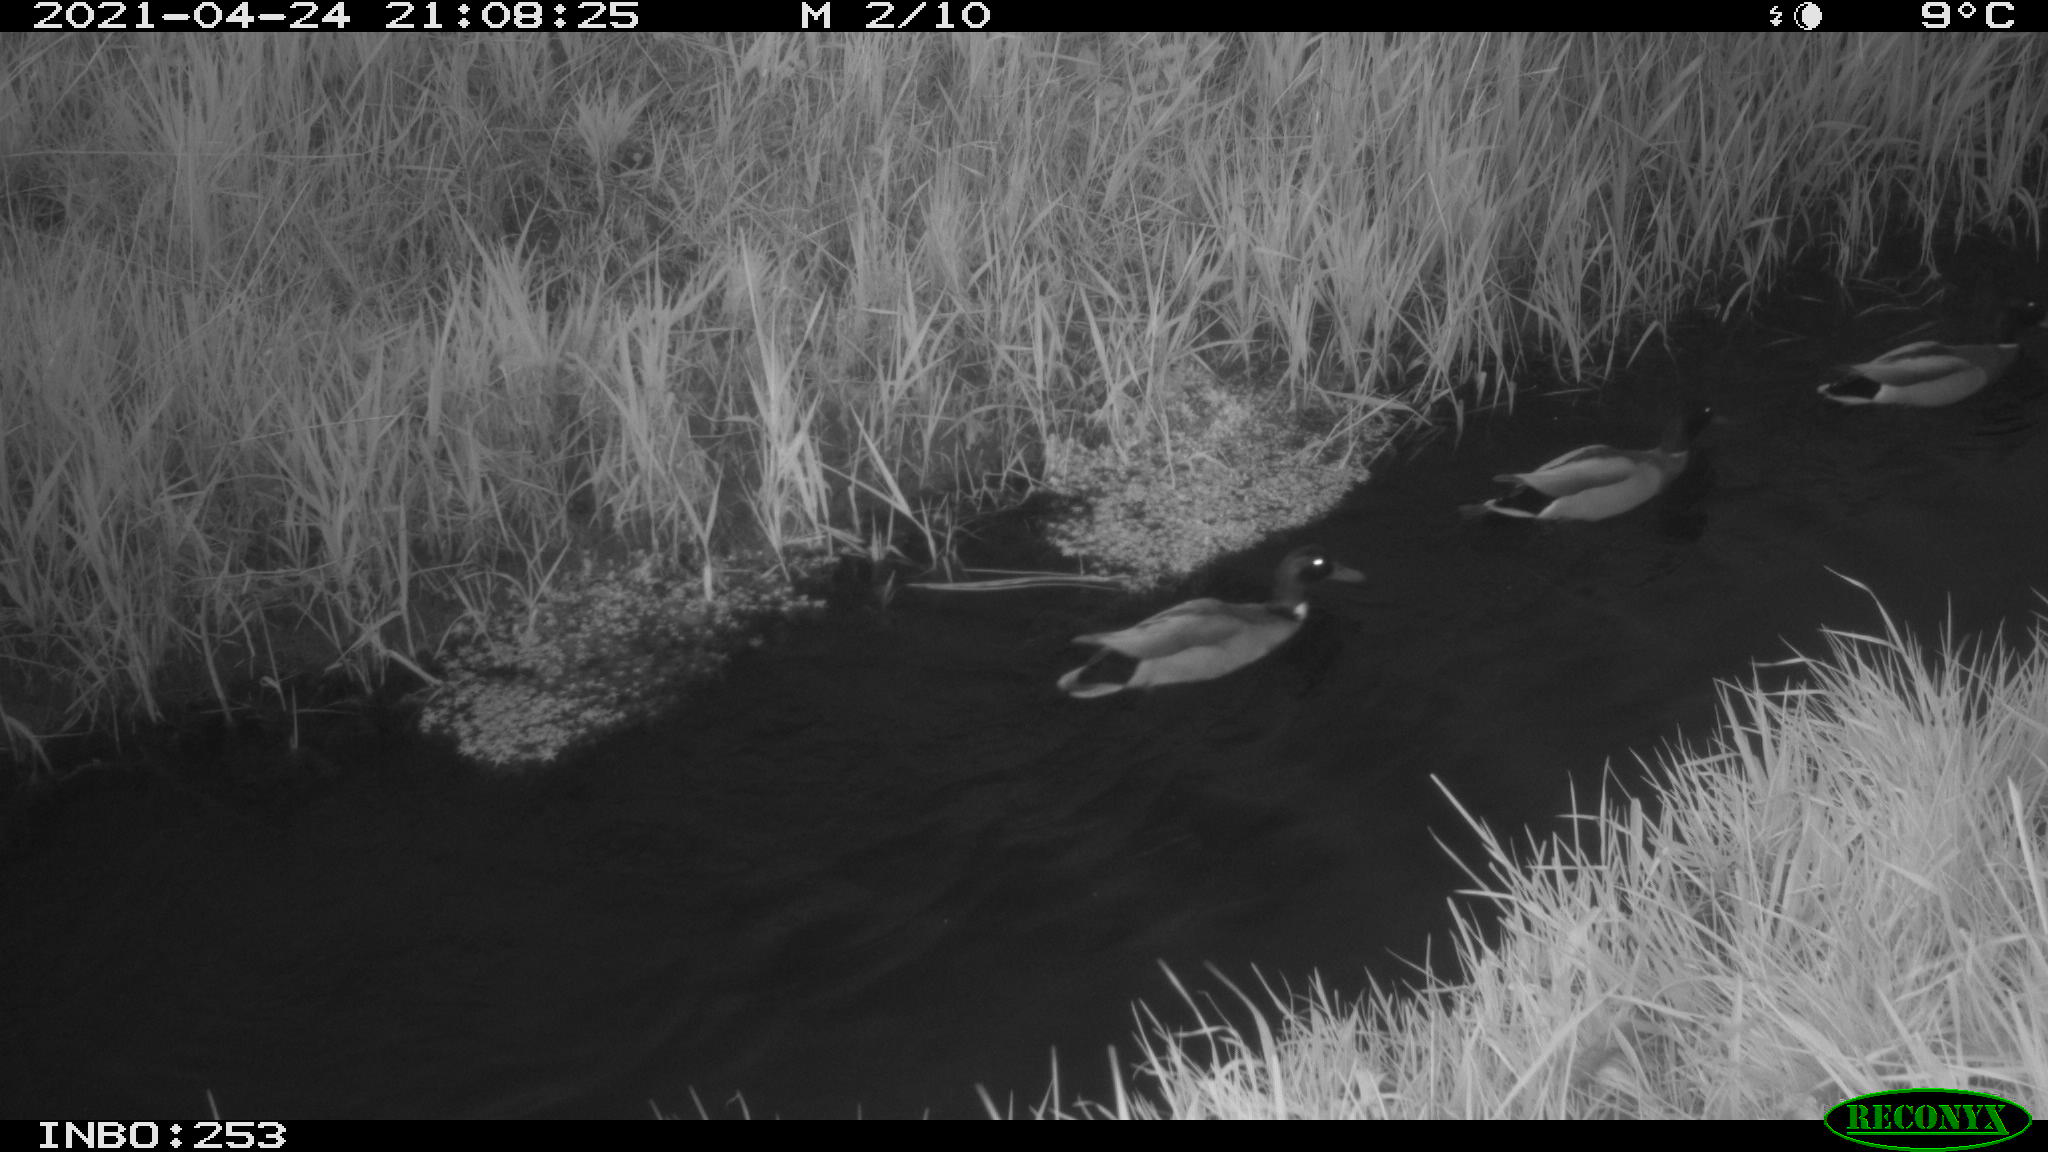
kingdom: Animalia
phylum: Chordata
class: Aves
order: Anseriformes
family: Anatidae
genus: Anas
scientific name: Anas platyrhynchos
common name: Mallard
